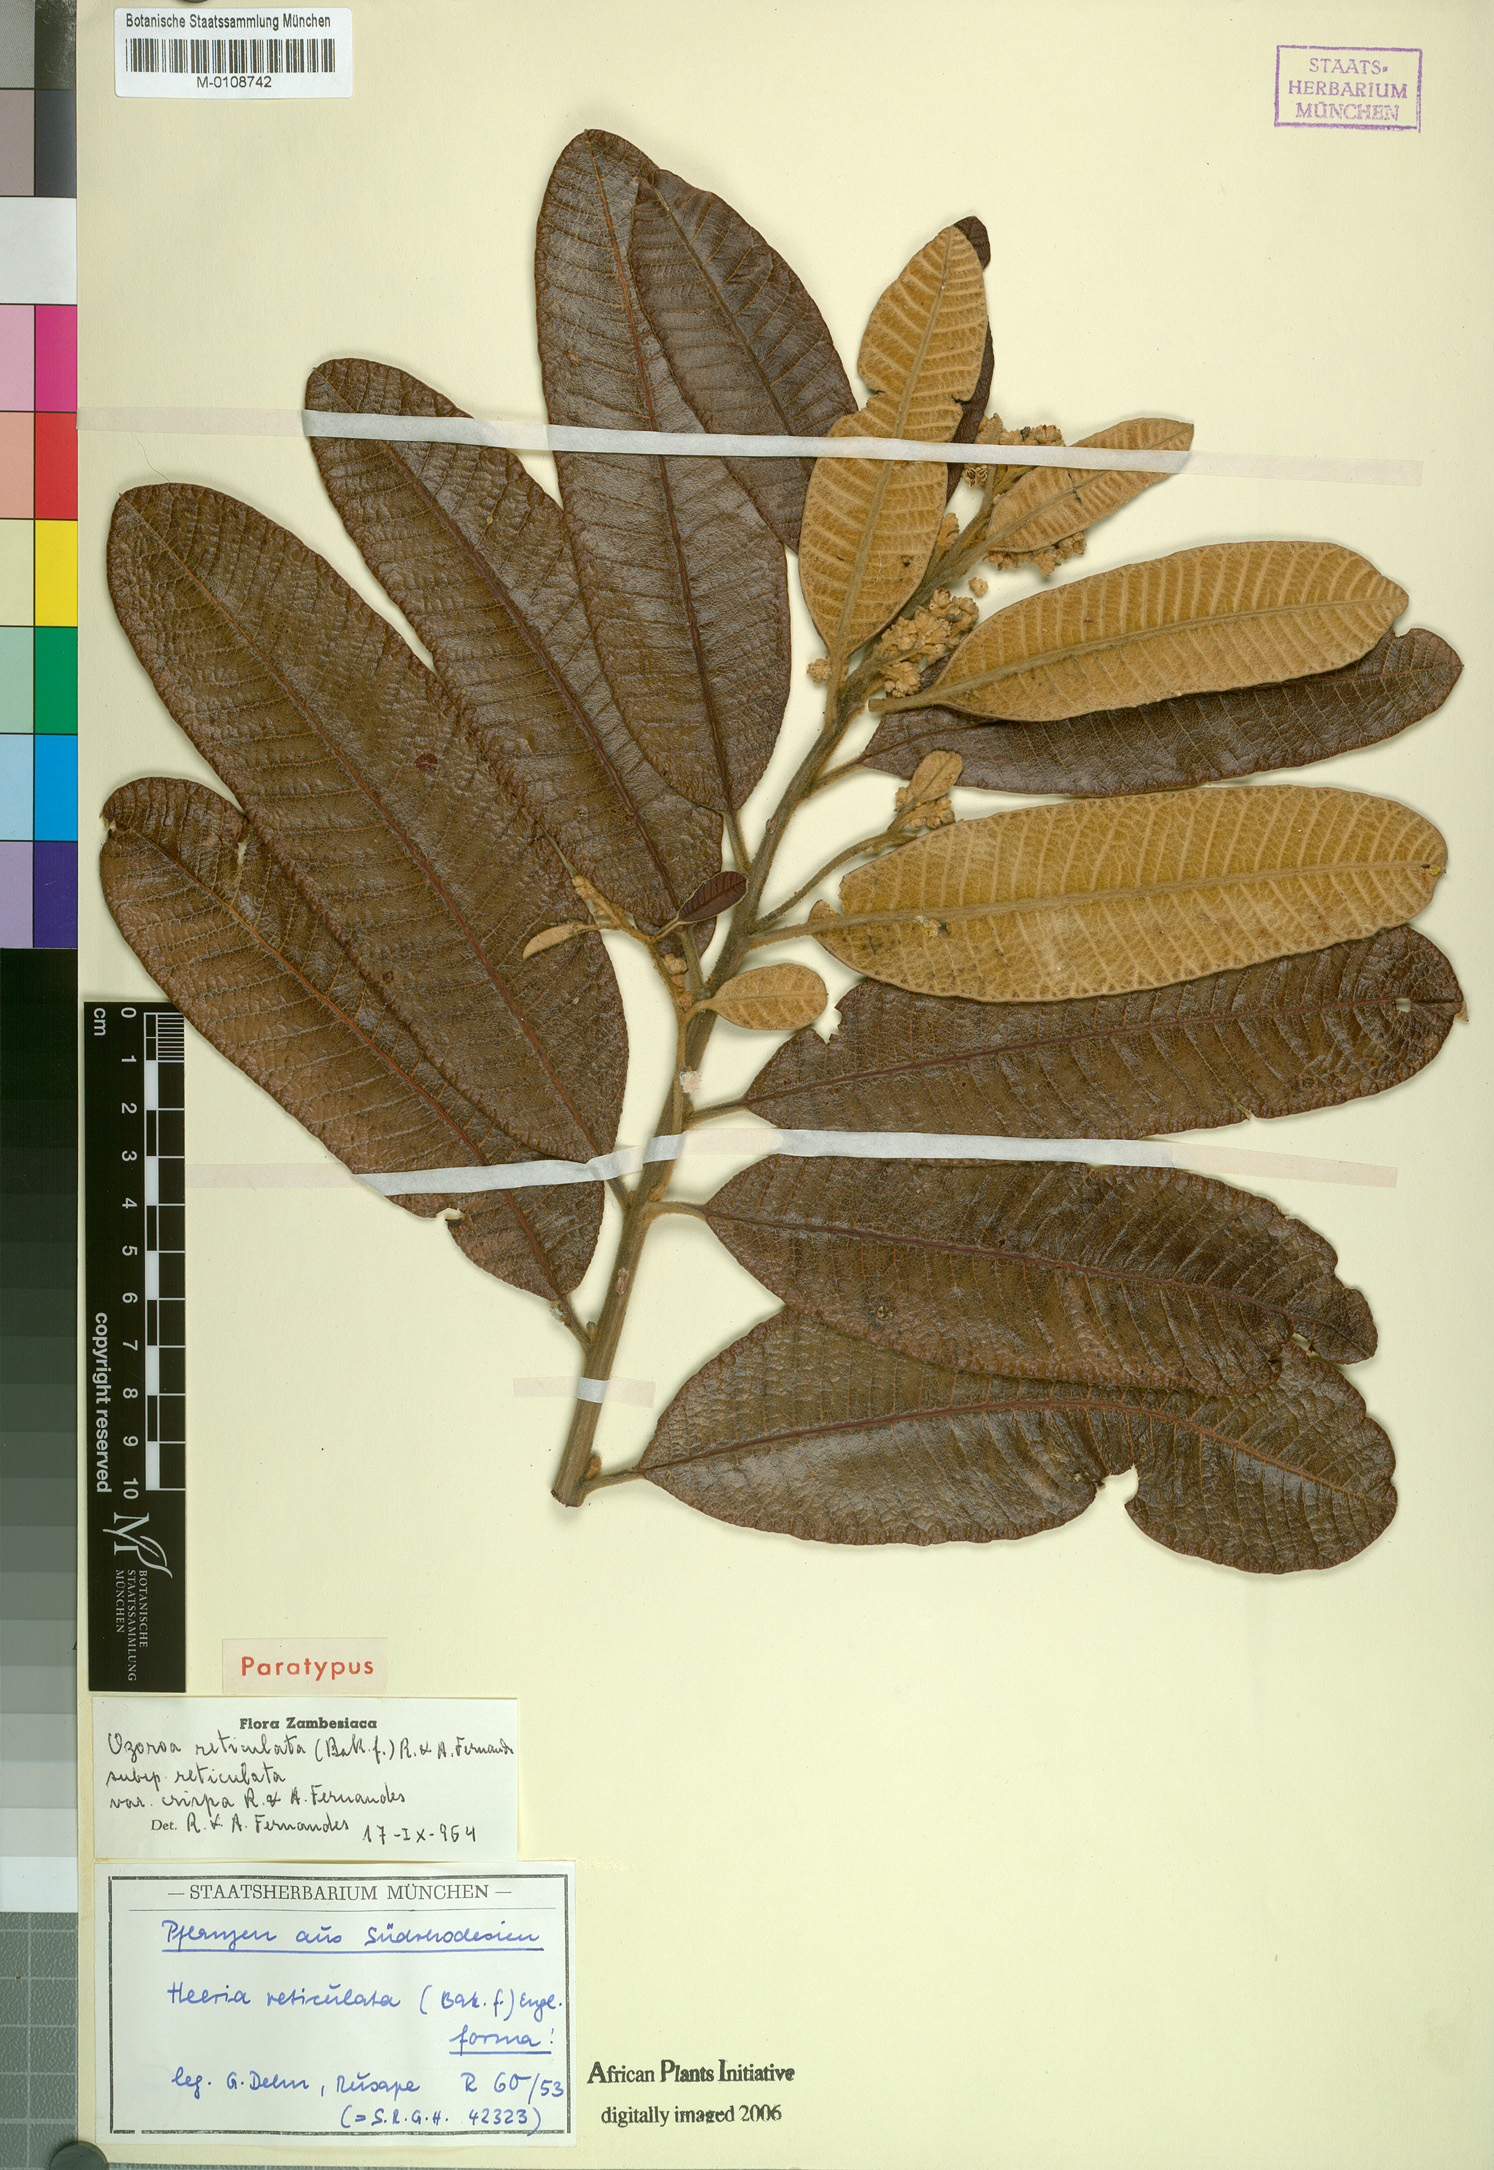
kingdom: Plantae
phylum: Tracheophyta
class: Magnoliopsida
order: Sapindales
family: Anacardiaceae
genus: Ozoroa
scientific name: Ozoroa insignis
